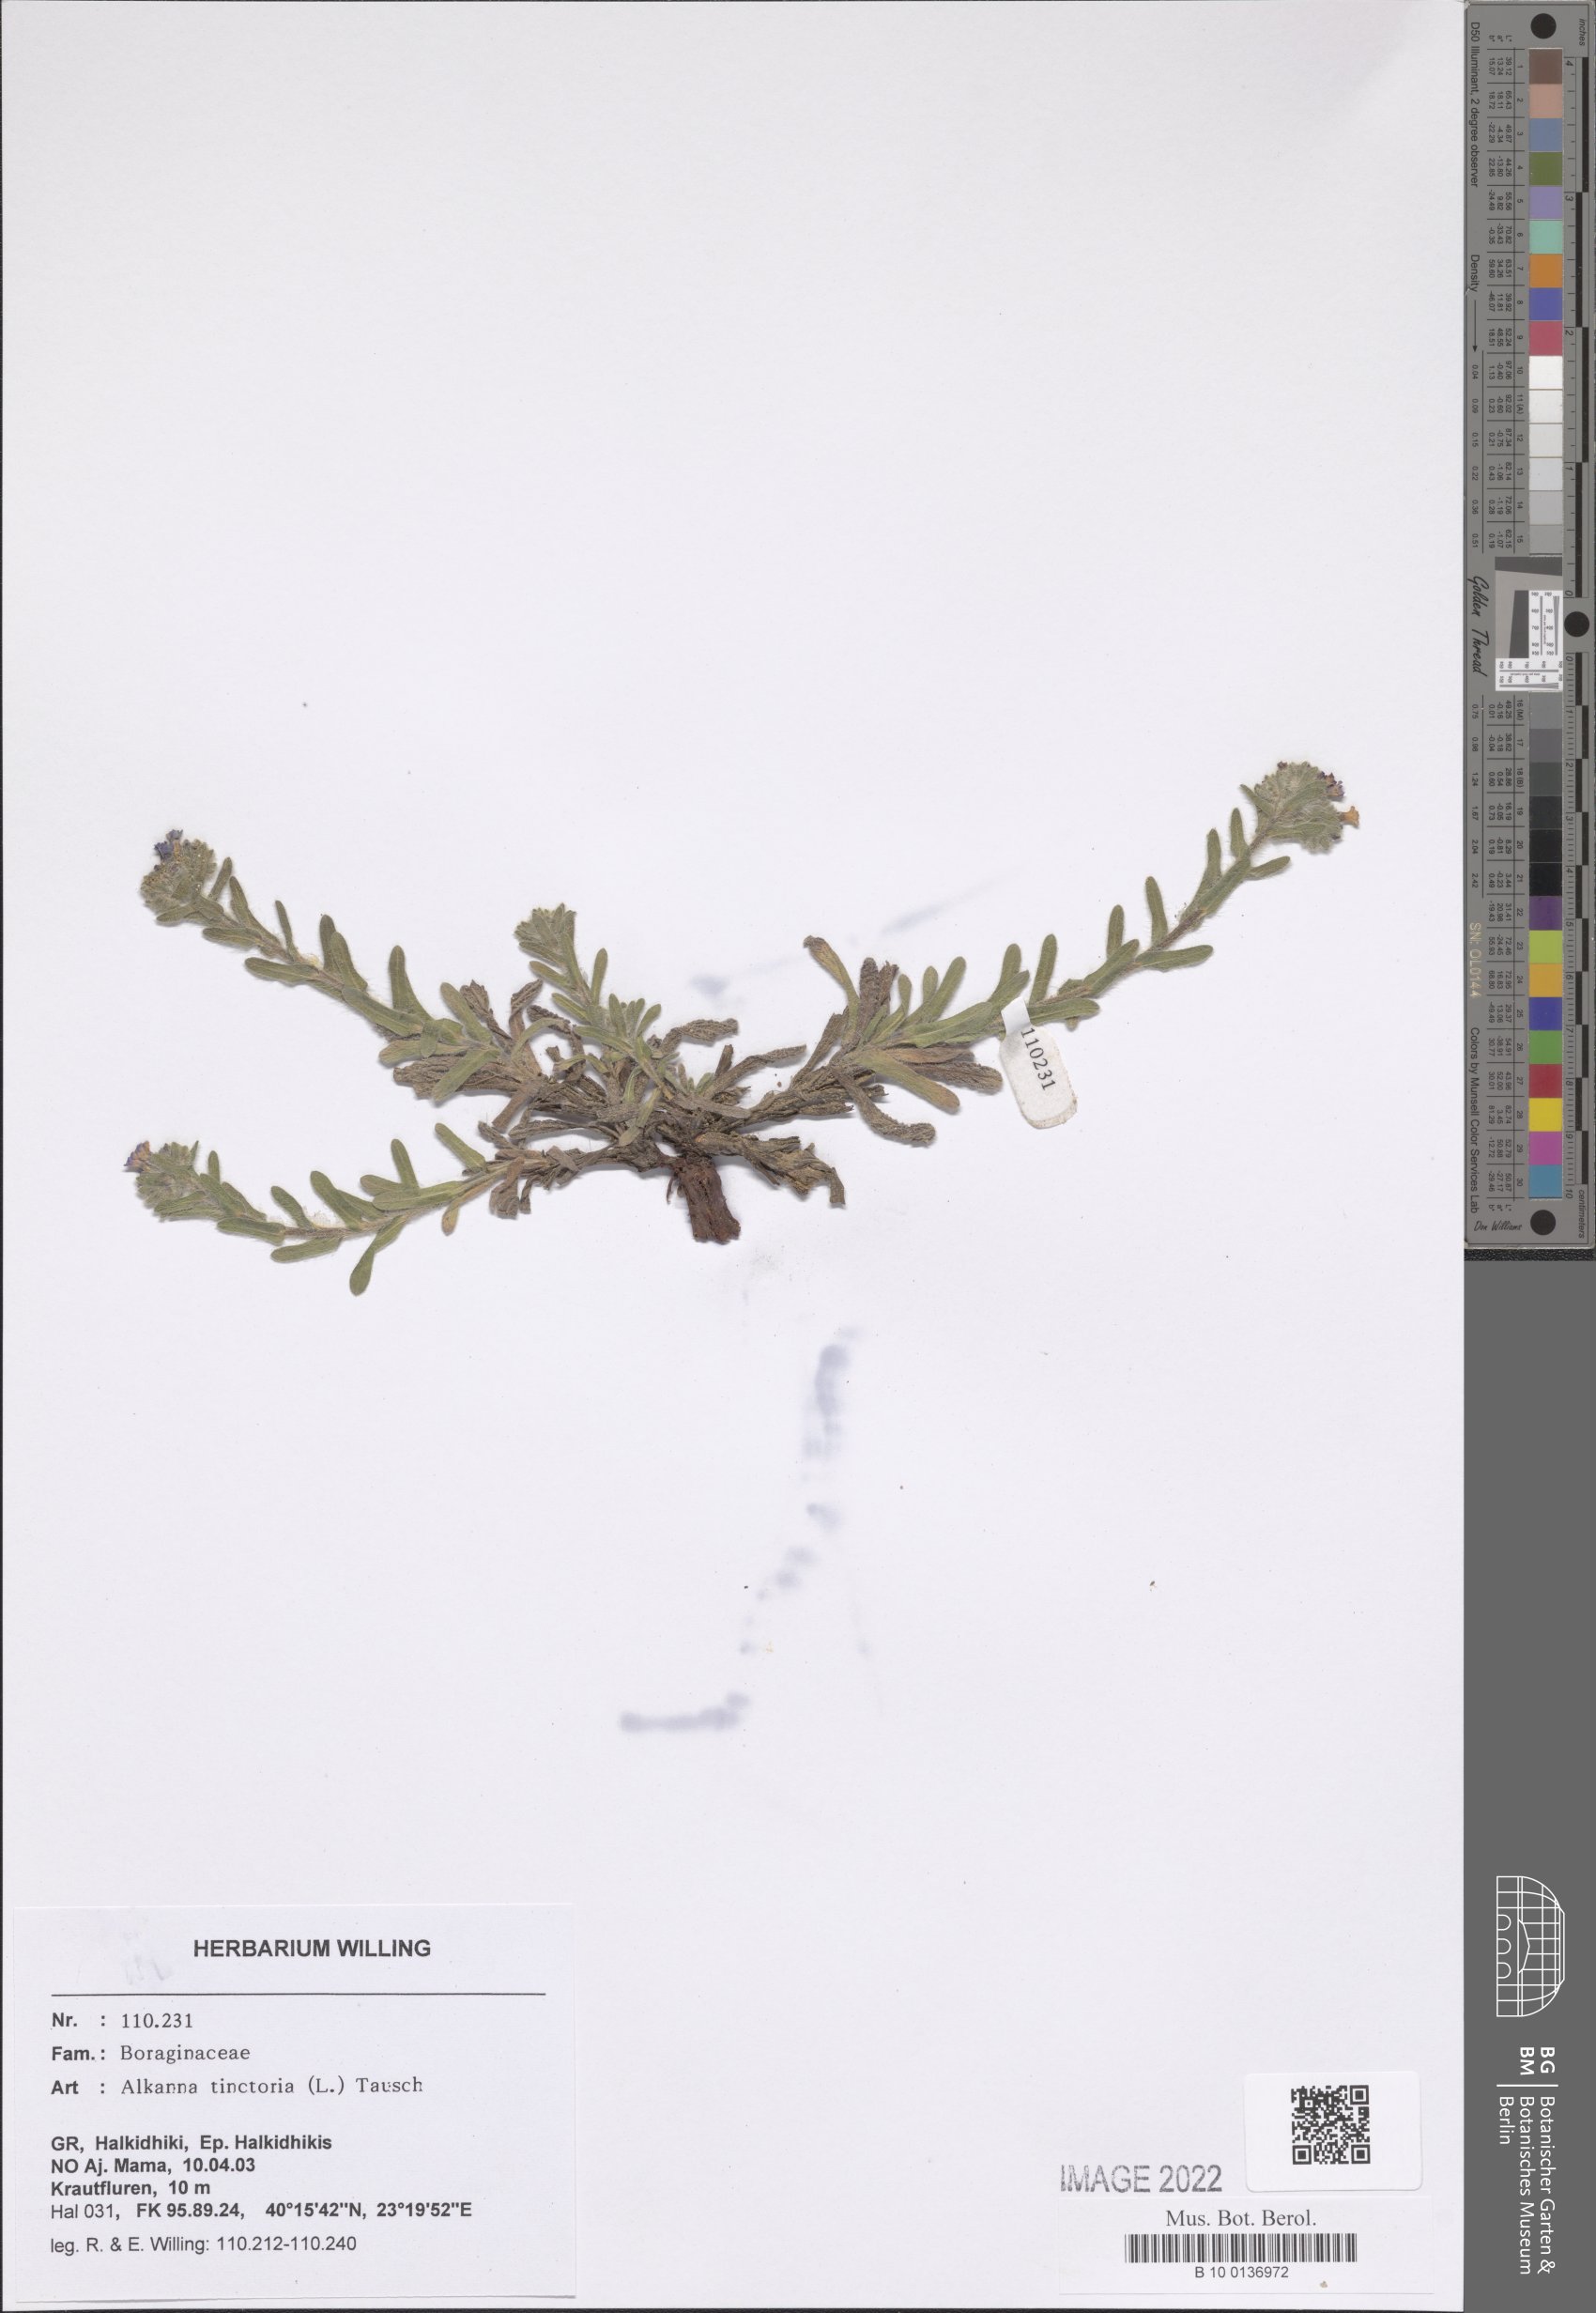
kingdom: Plantae
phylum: Tracheophyta
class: Magnoliopsida
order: Boraginales
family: Boraginaceae
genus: Alkanna
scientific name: Alkanna tinctoria
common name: Dyer's-alkanet
